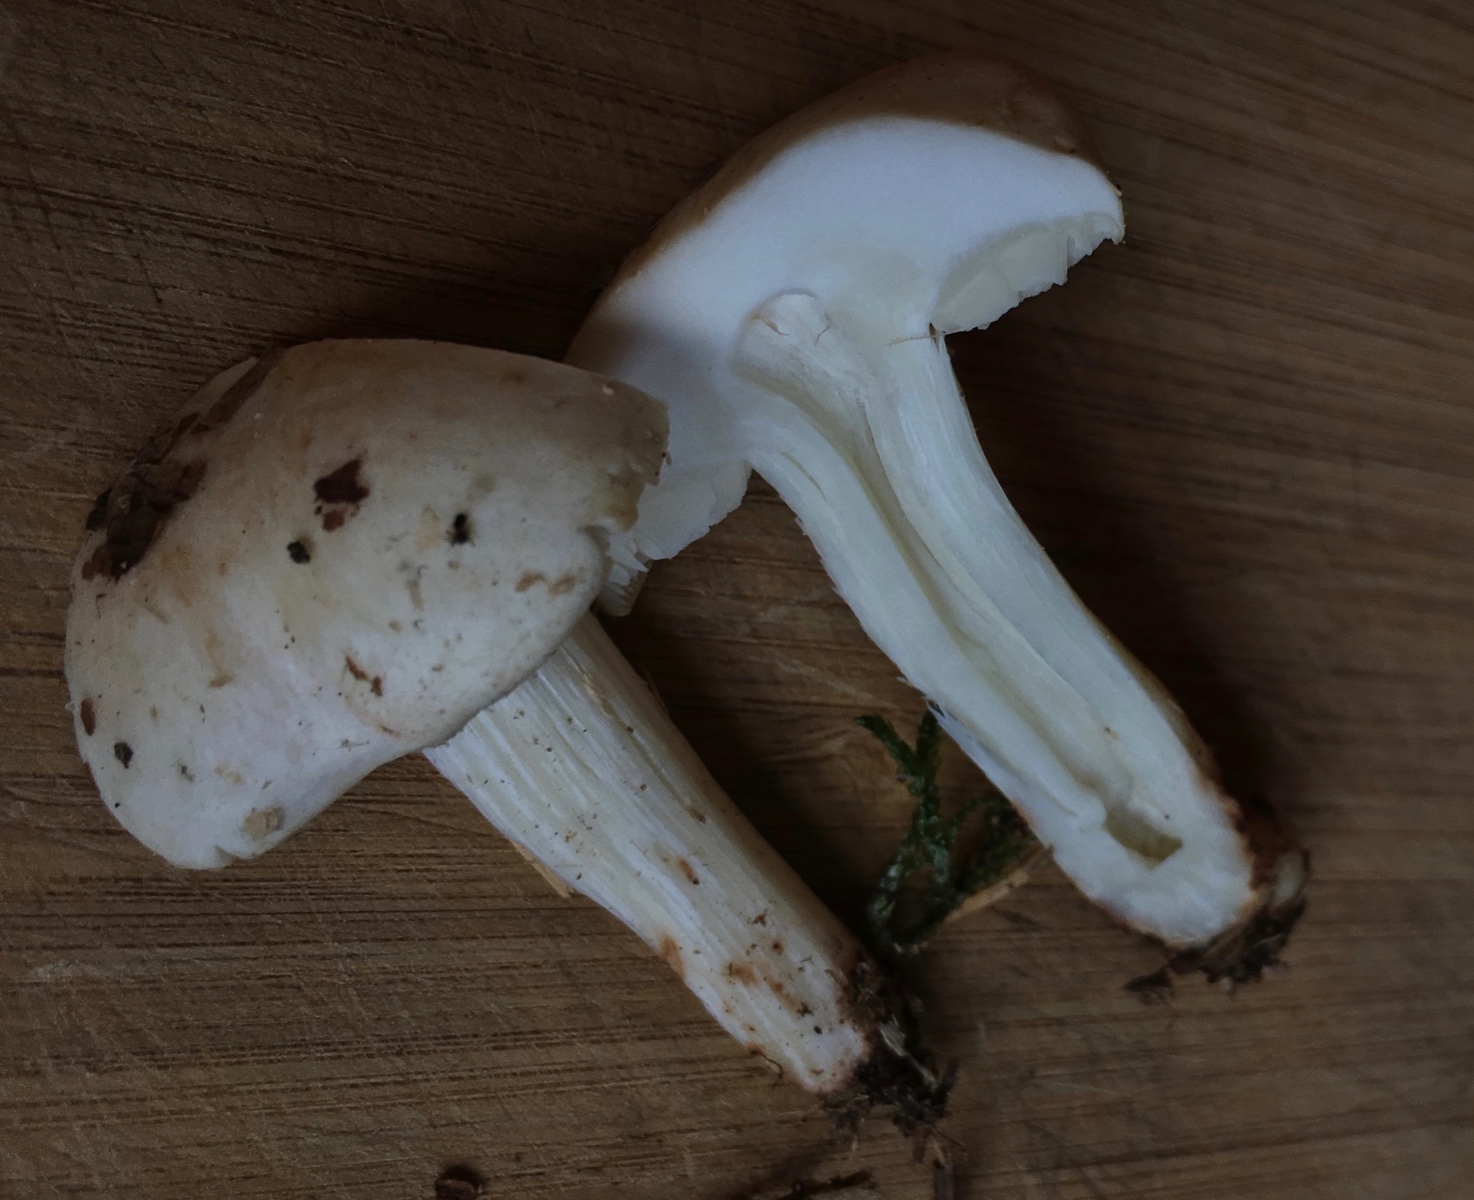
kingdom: Fungi
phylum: Basidiomycota
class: Agaricomycetes
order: Agaricales
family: Omphalotaceae
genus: Rhodocollybia
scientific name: Rhodocollybia maculata
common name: plettet fladhat
